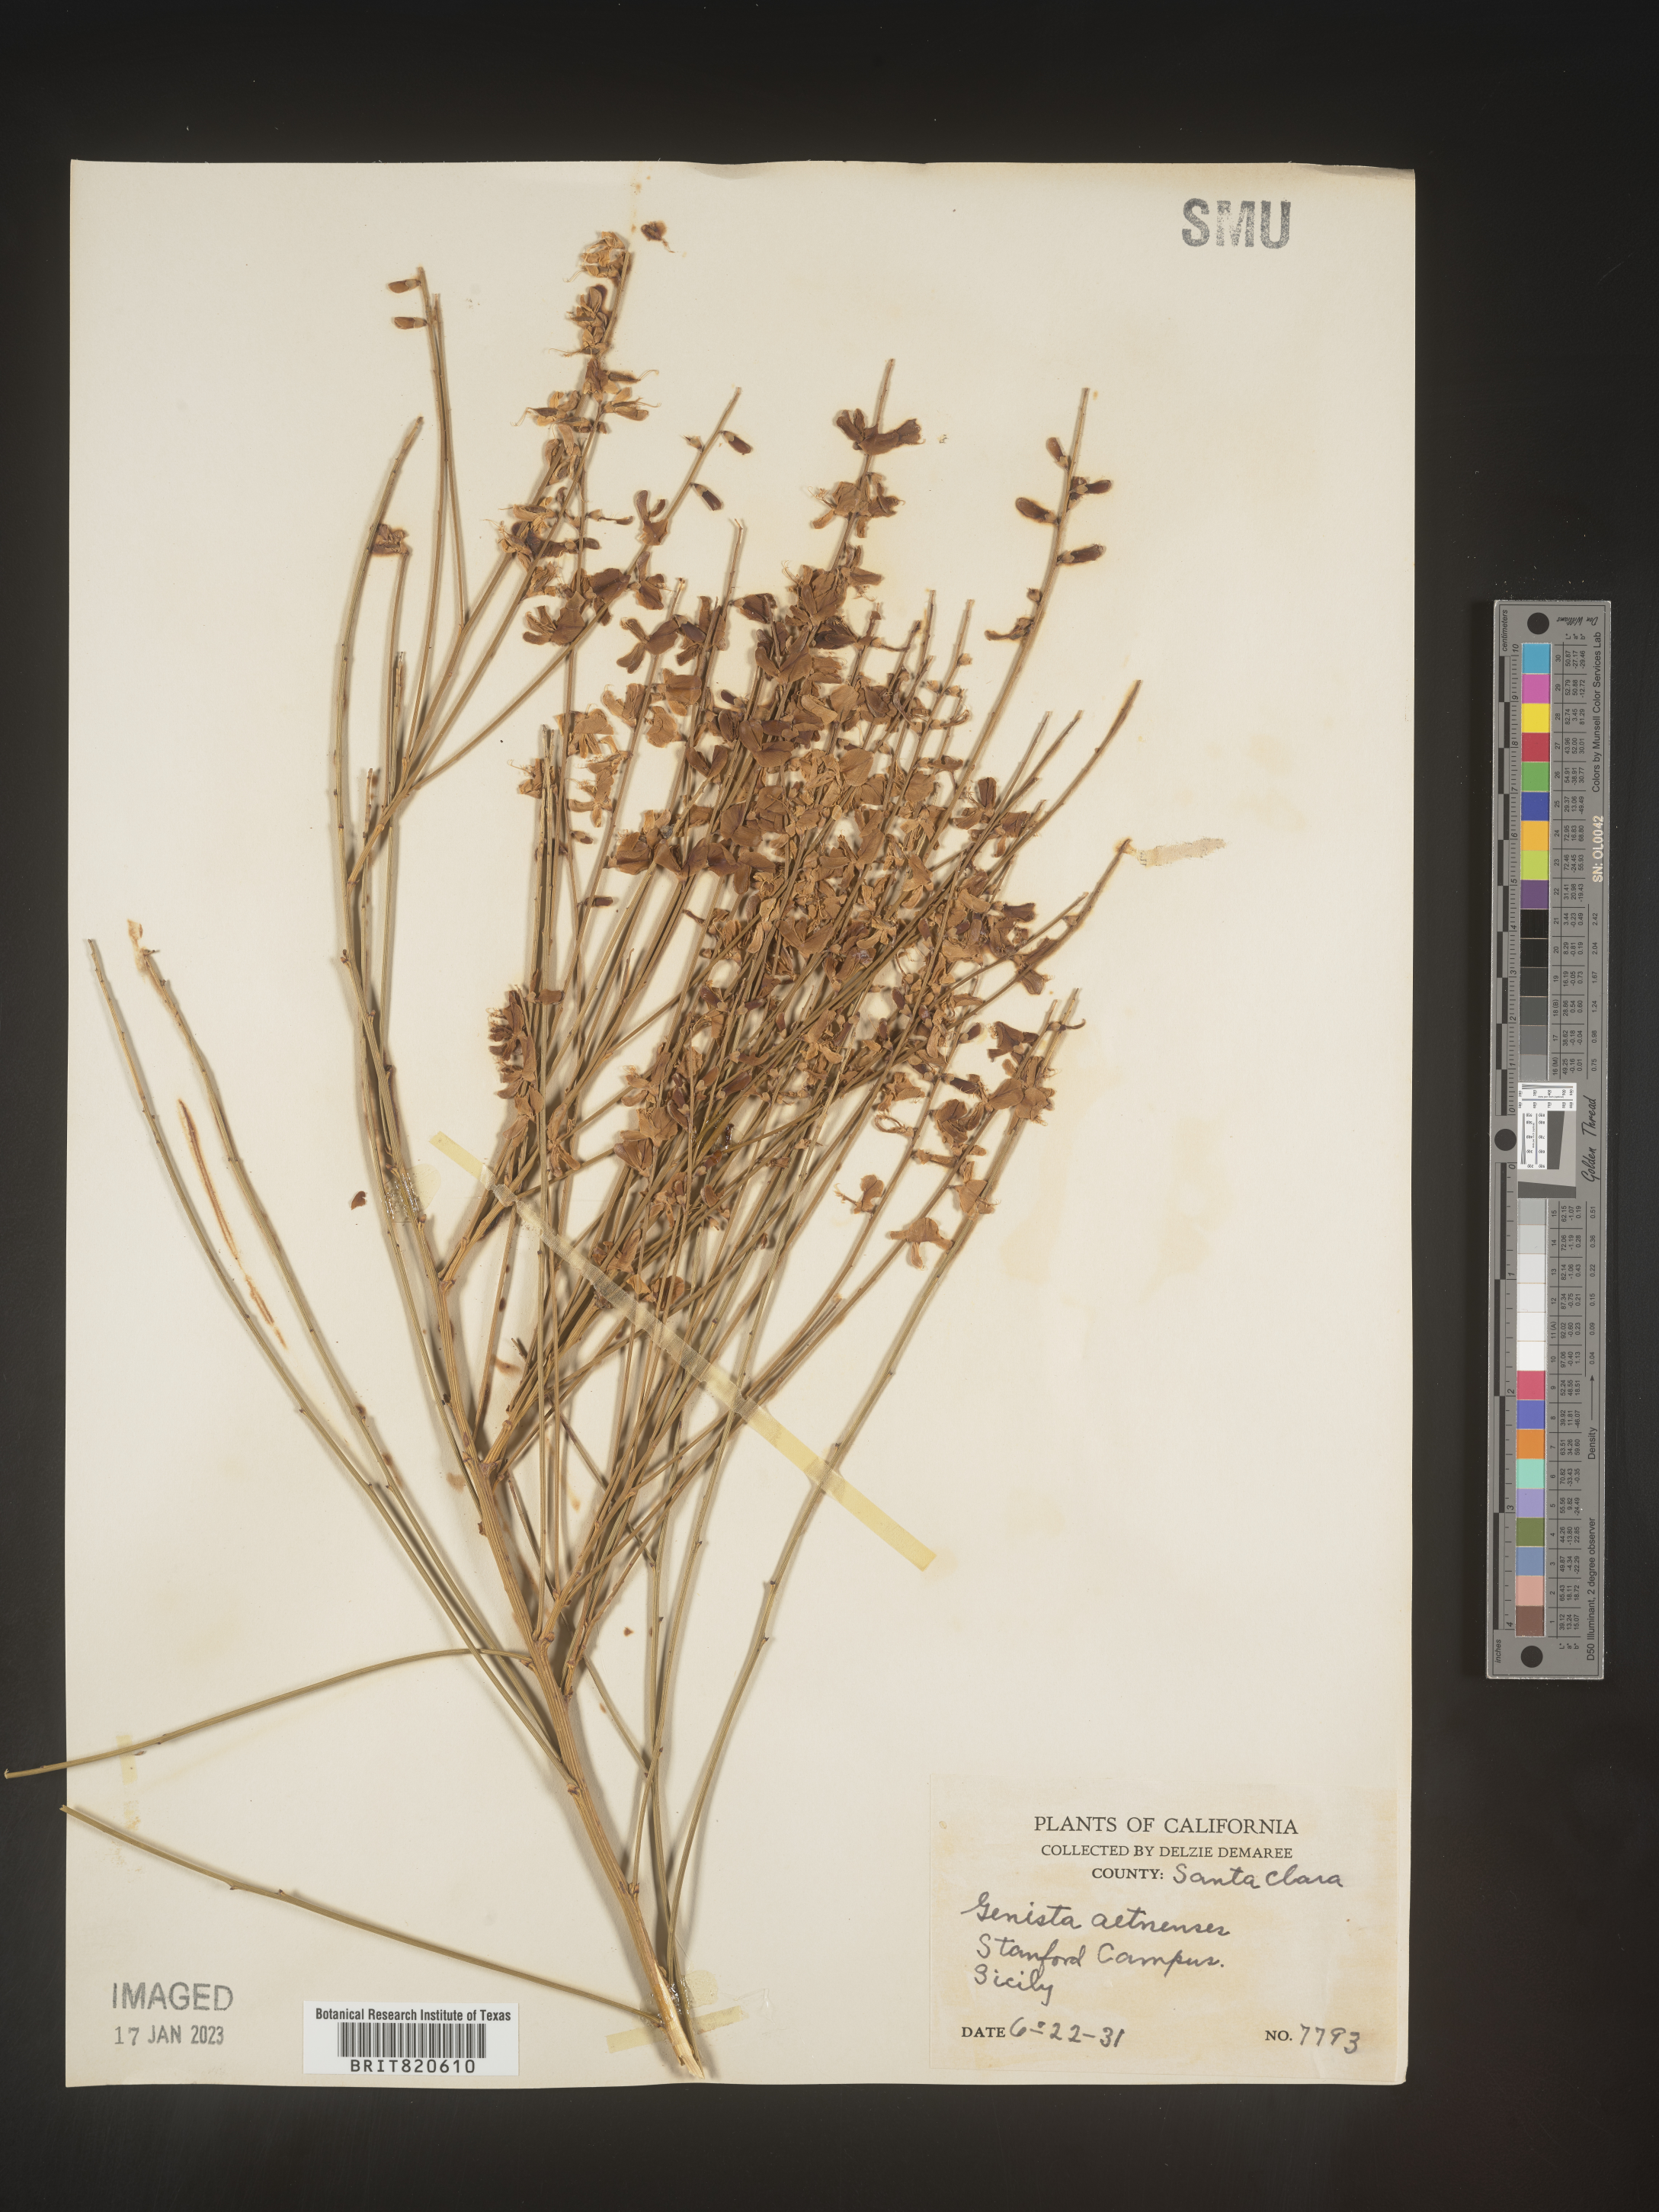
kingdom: Plantae
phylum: Tracheophyta
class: Magnoliopsida
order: Fabales
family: Fabaceae
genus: Genista
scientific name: Genista
